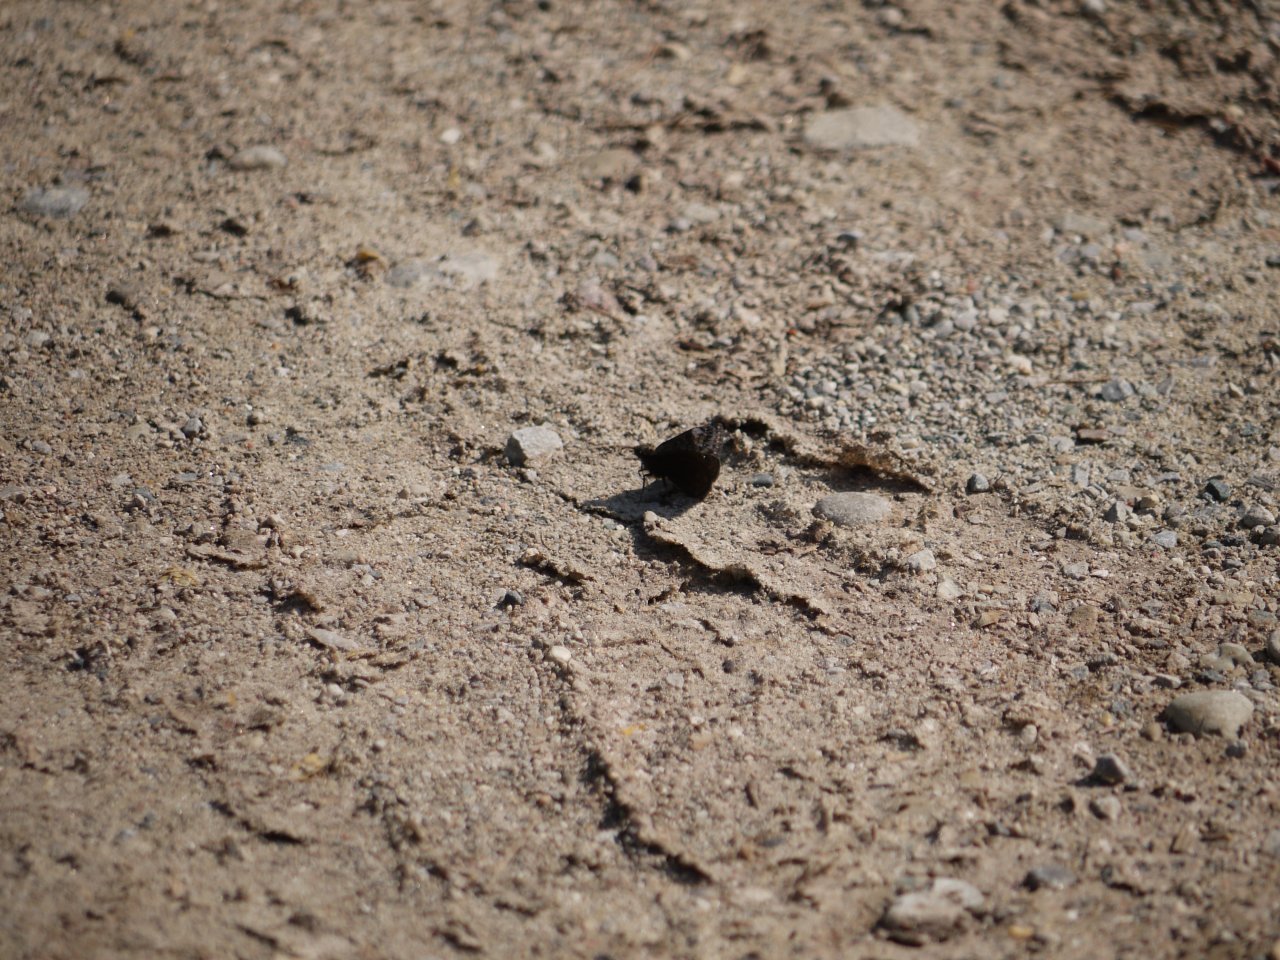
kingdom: Animalia
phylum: Arthropoda
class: Insecta
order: Lepidoptera
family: Hesperiidae
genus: Erynnis
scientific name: Erynnis
